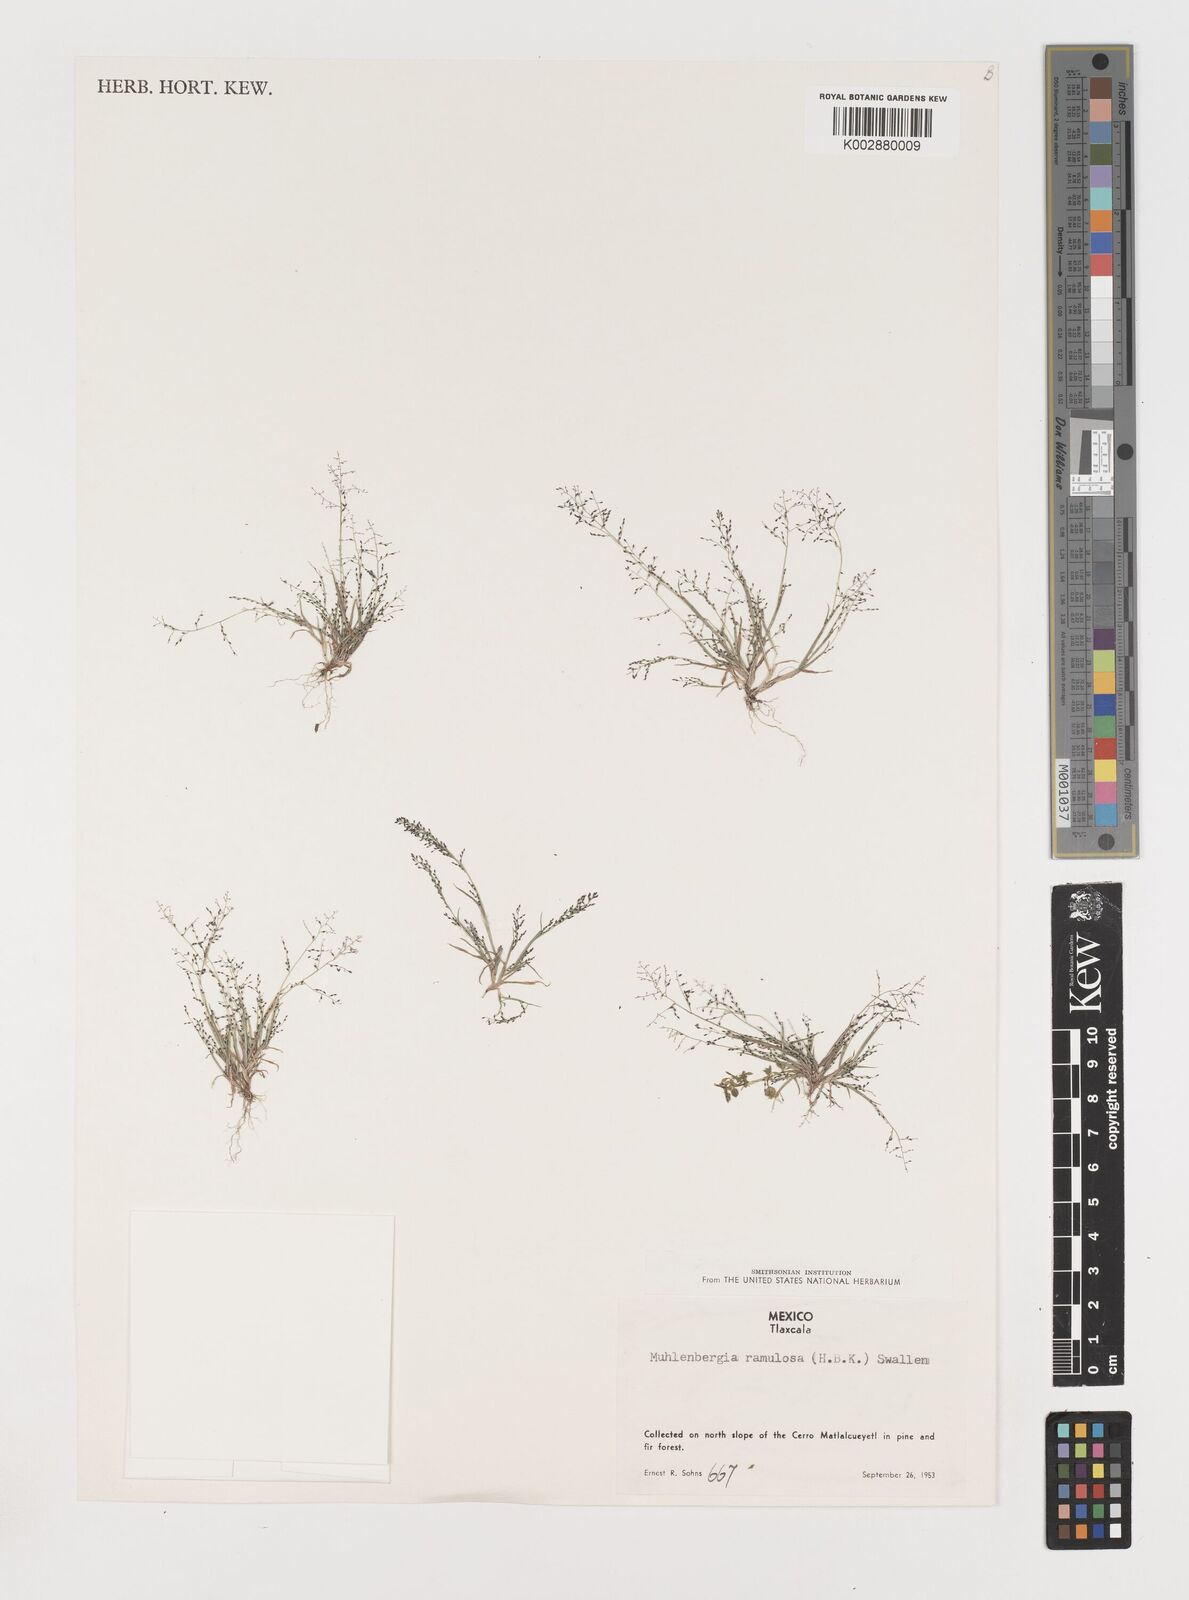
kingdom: Plantae
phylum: Tracheophyta
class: Liliopsida
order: Poales
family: Poaceae
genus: Muhlenbergia
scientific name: Muhlenbergia ramulosa
